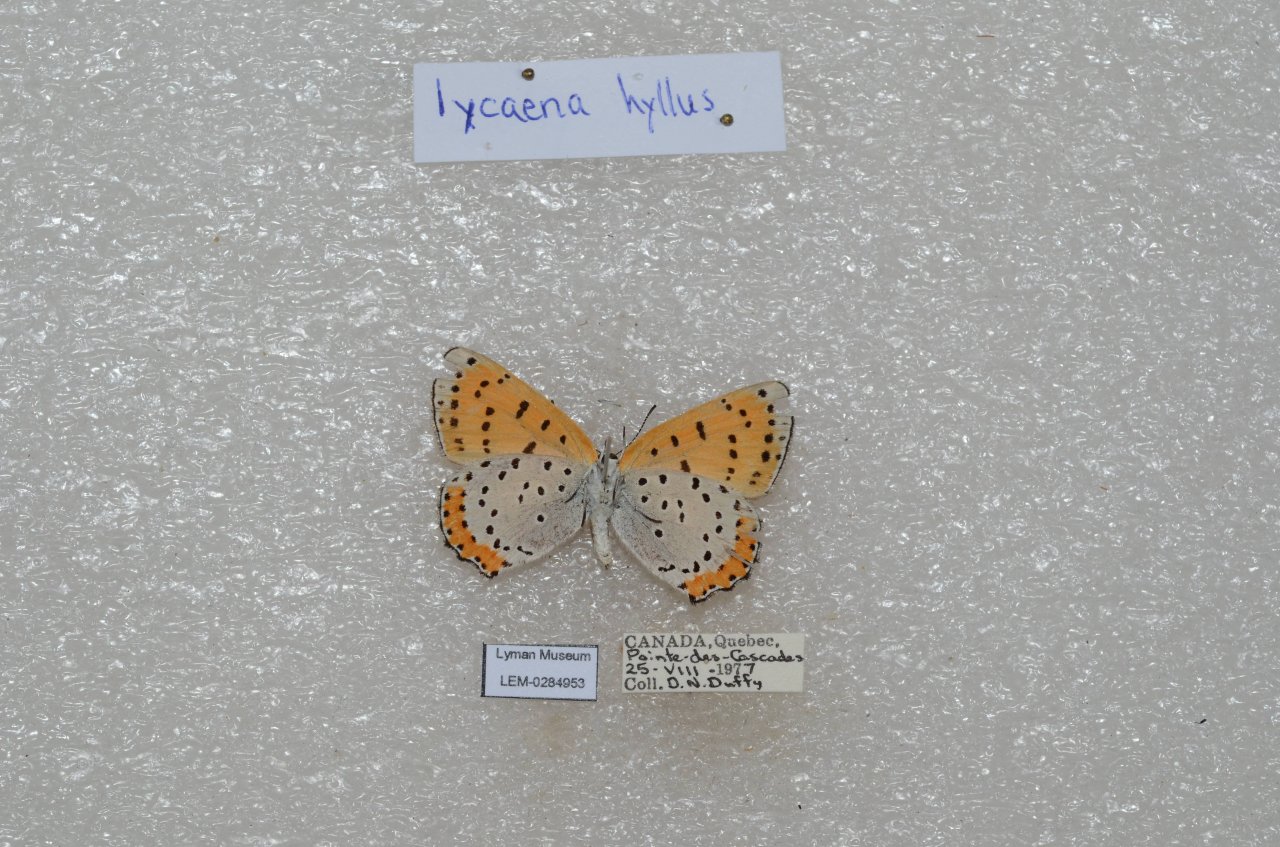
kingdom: Animalia
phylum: Arthropoda
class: Insecta
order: Lepidoptera
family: Sesiidae
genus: Sesia
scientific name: Sesia Lycaena hyllus
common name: Bronze Copper
